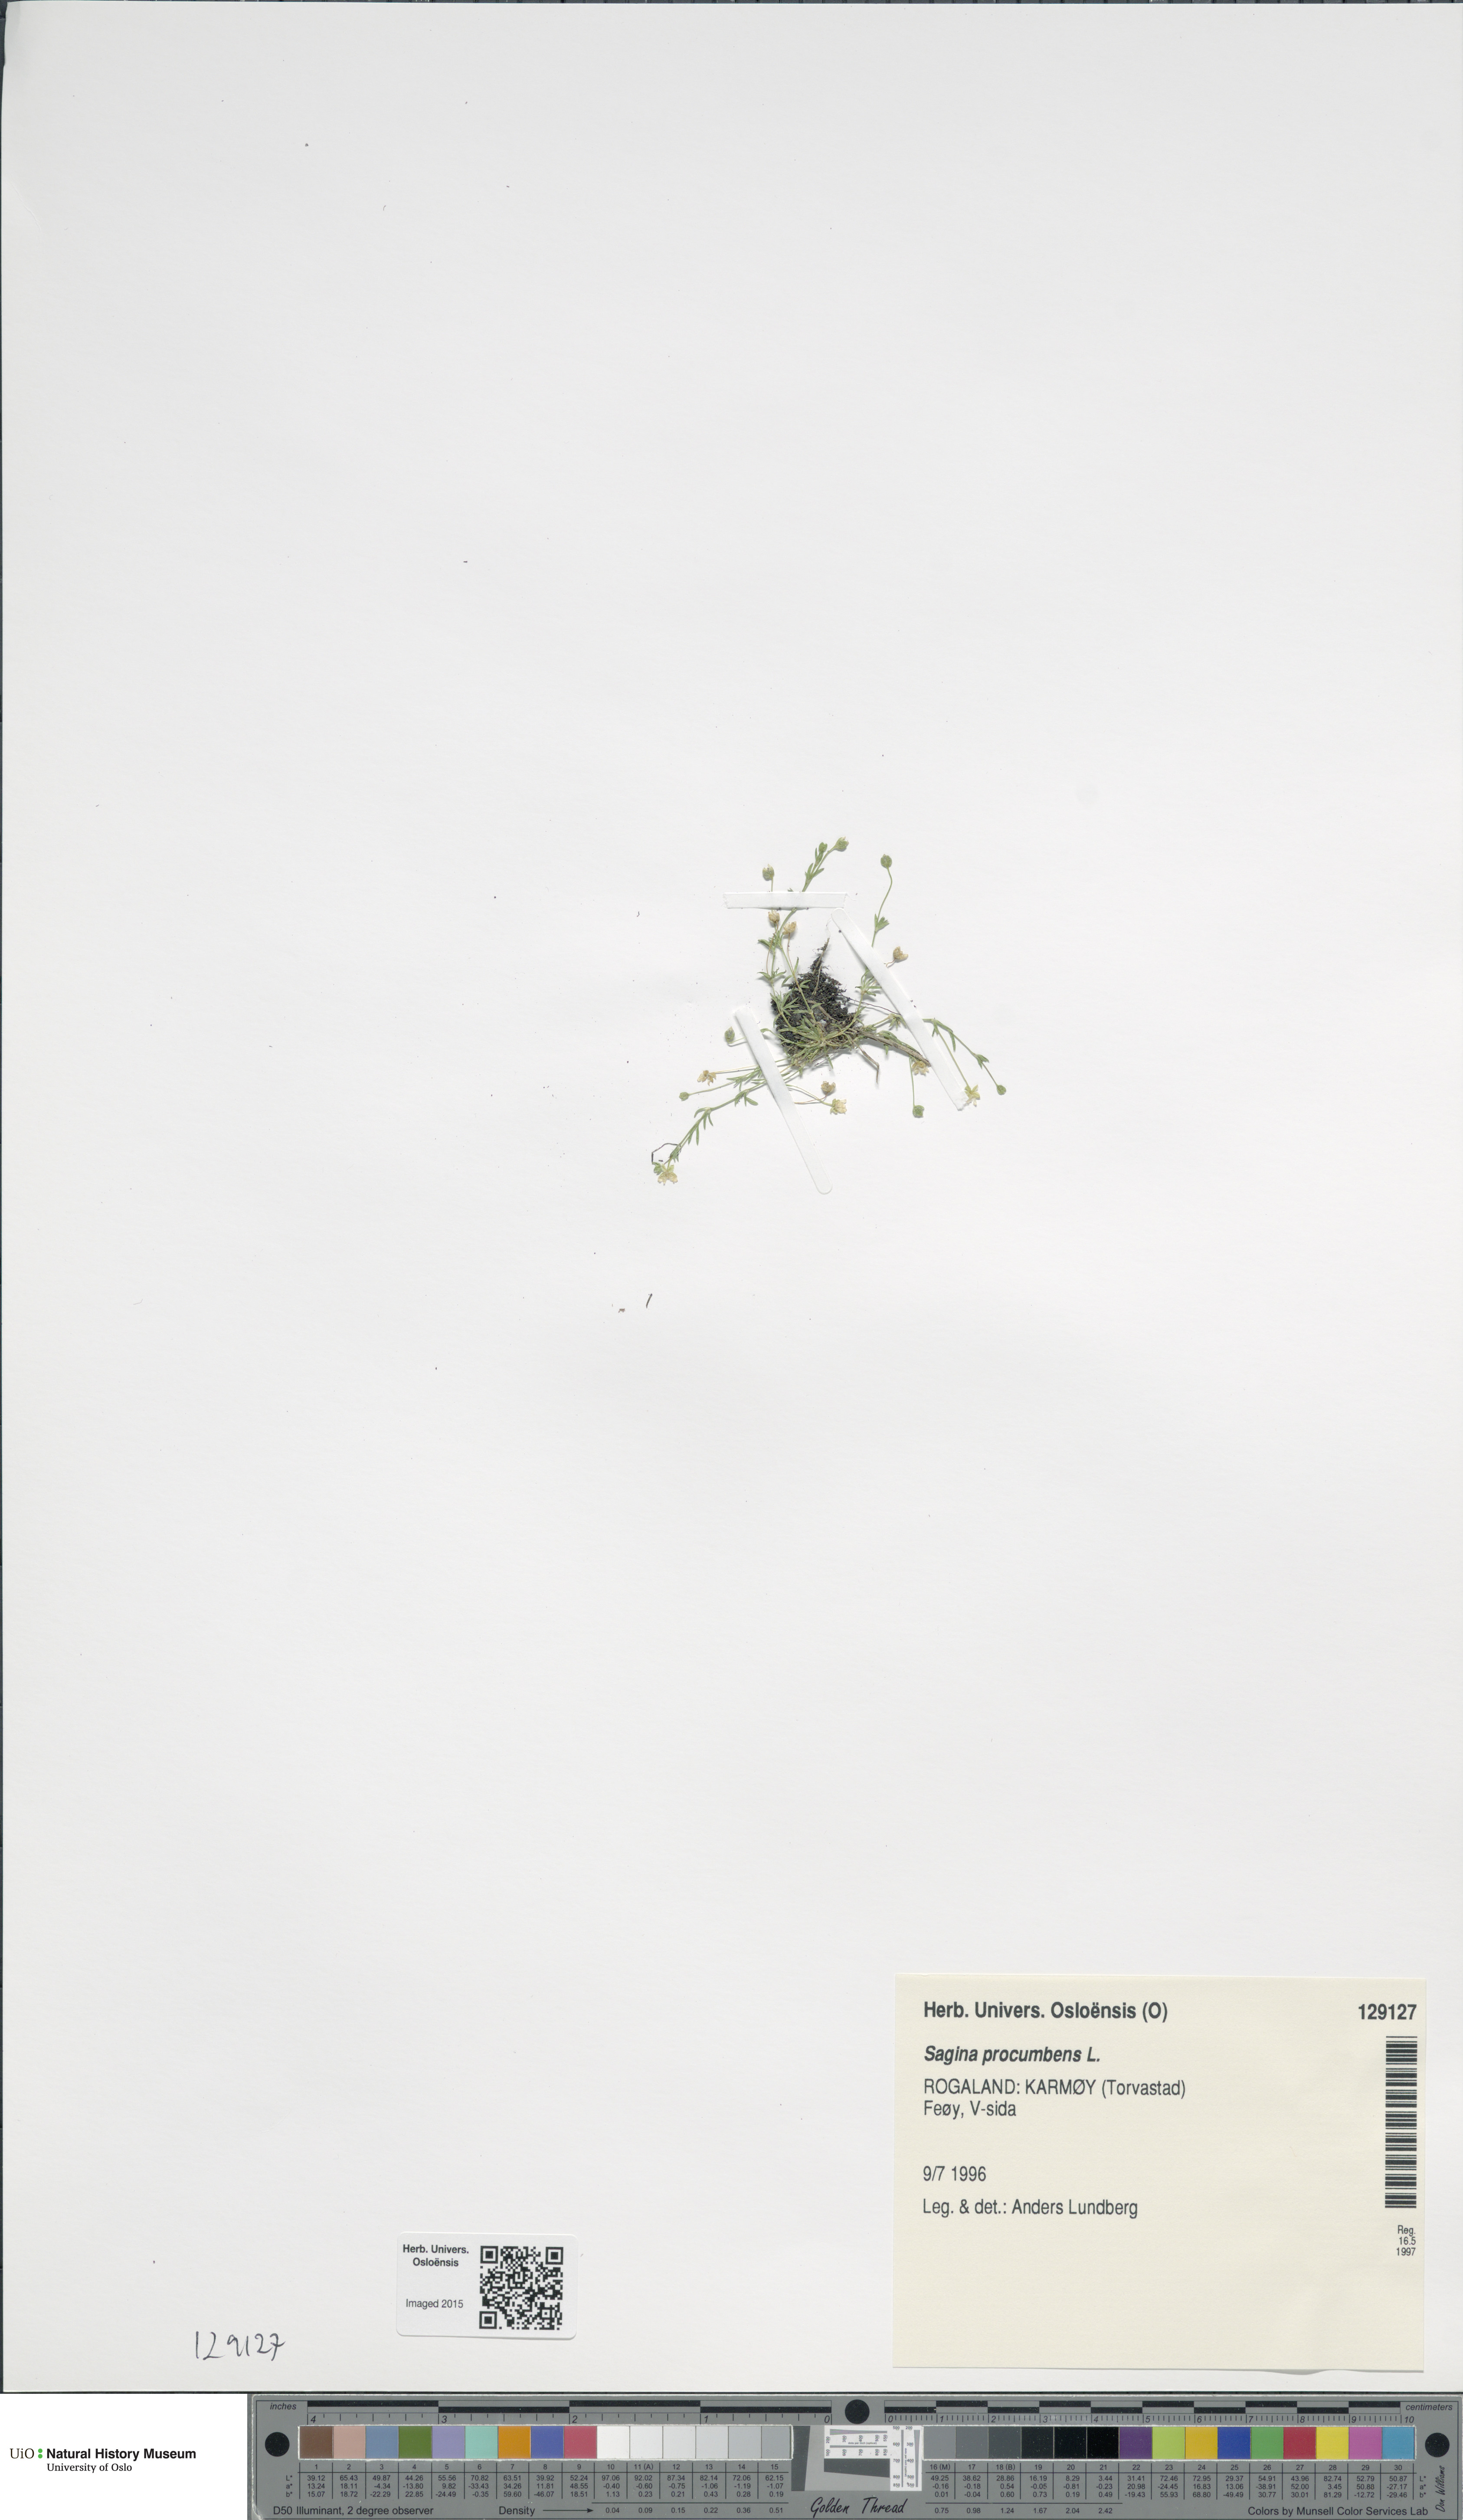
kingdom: Plantae
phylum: Tracheophyta
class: Magnoliopsida
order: Caryophyllales
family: Caryophyllaceae
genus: Sagina
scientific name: Sagina procumbens
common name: Procumbent pearlwort
